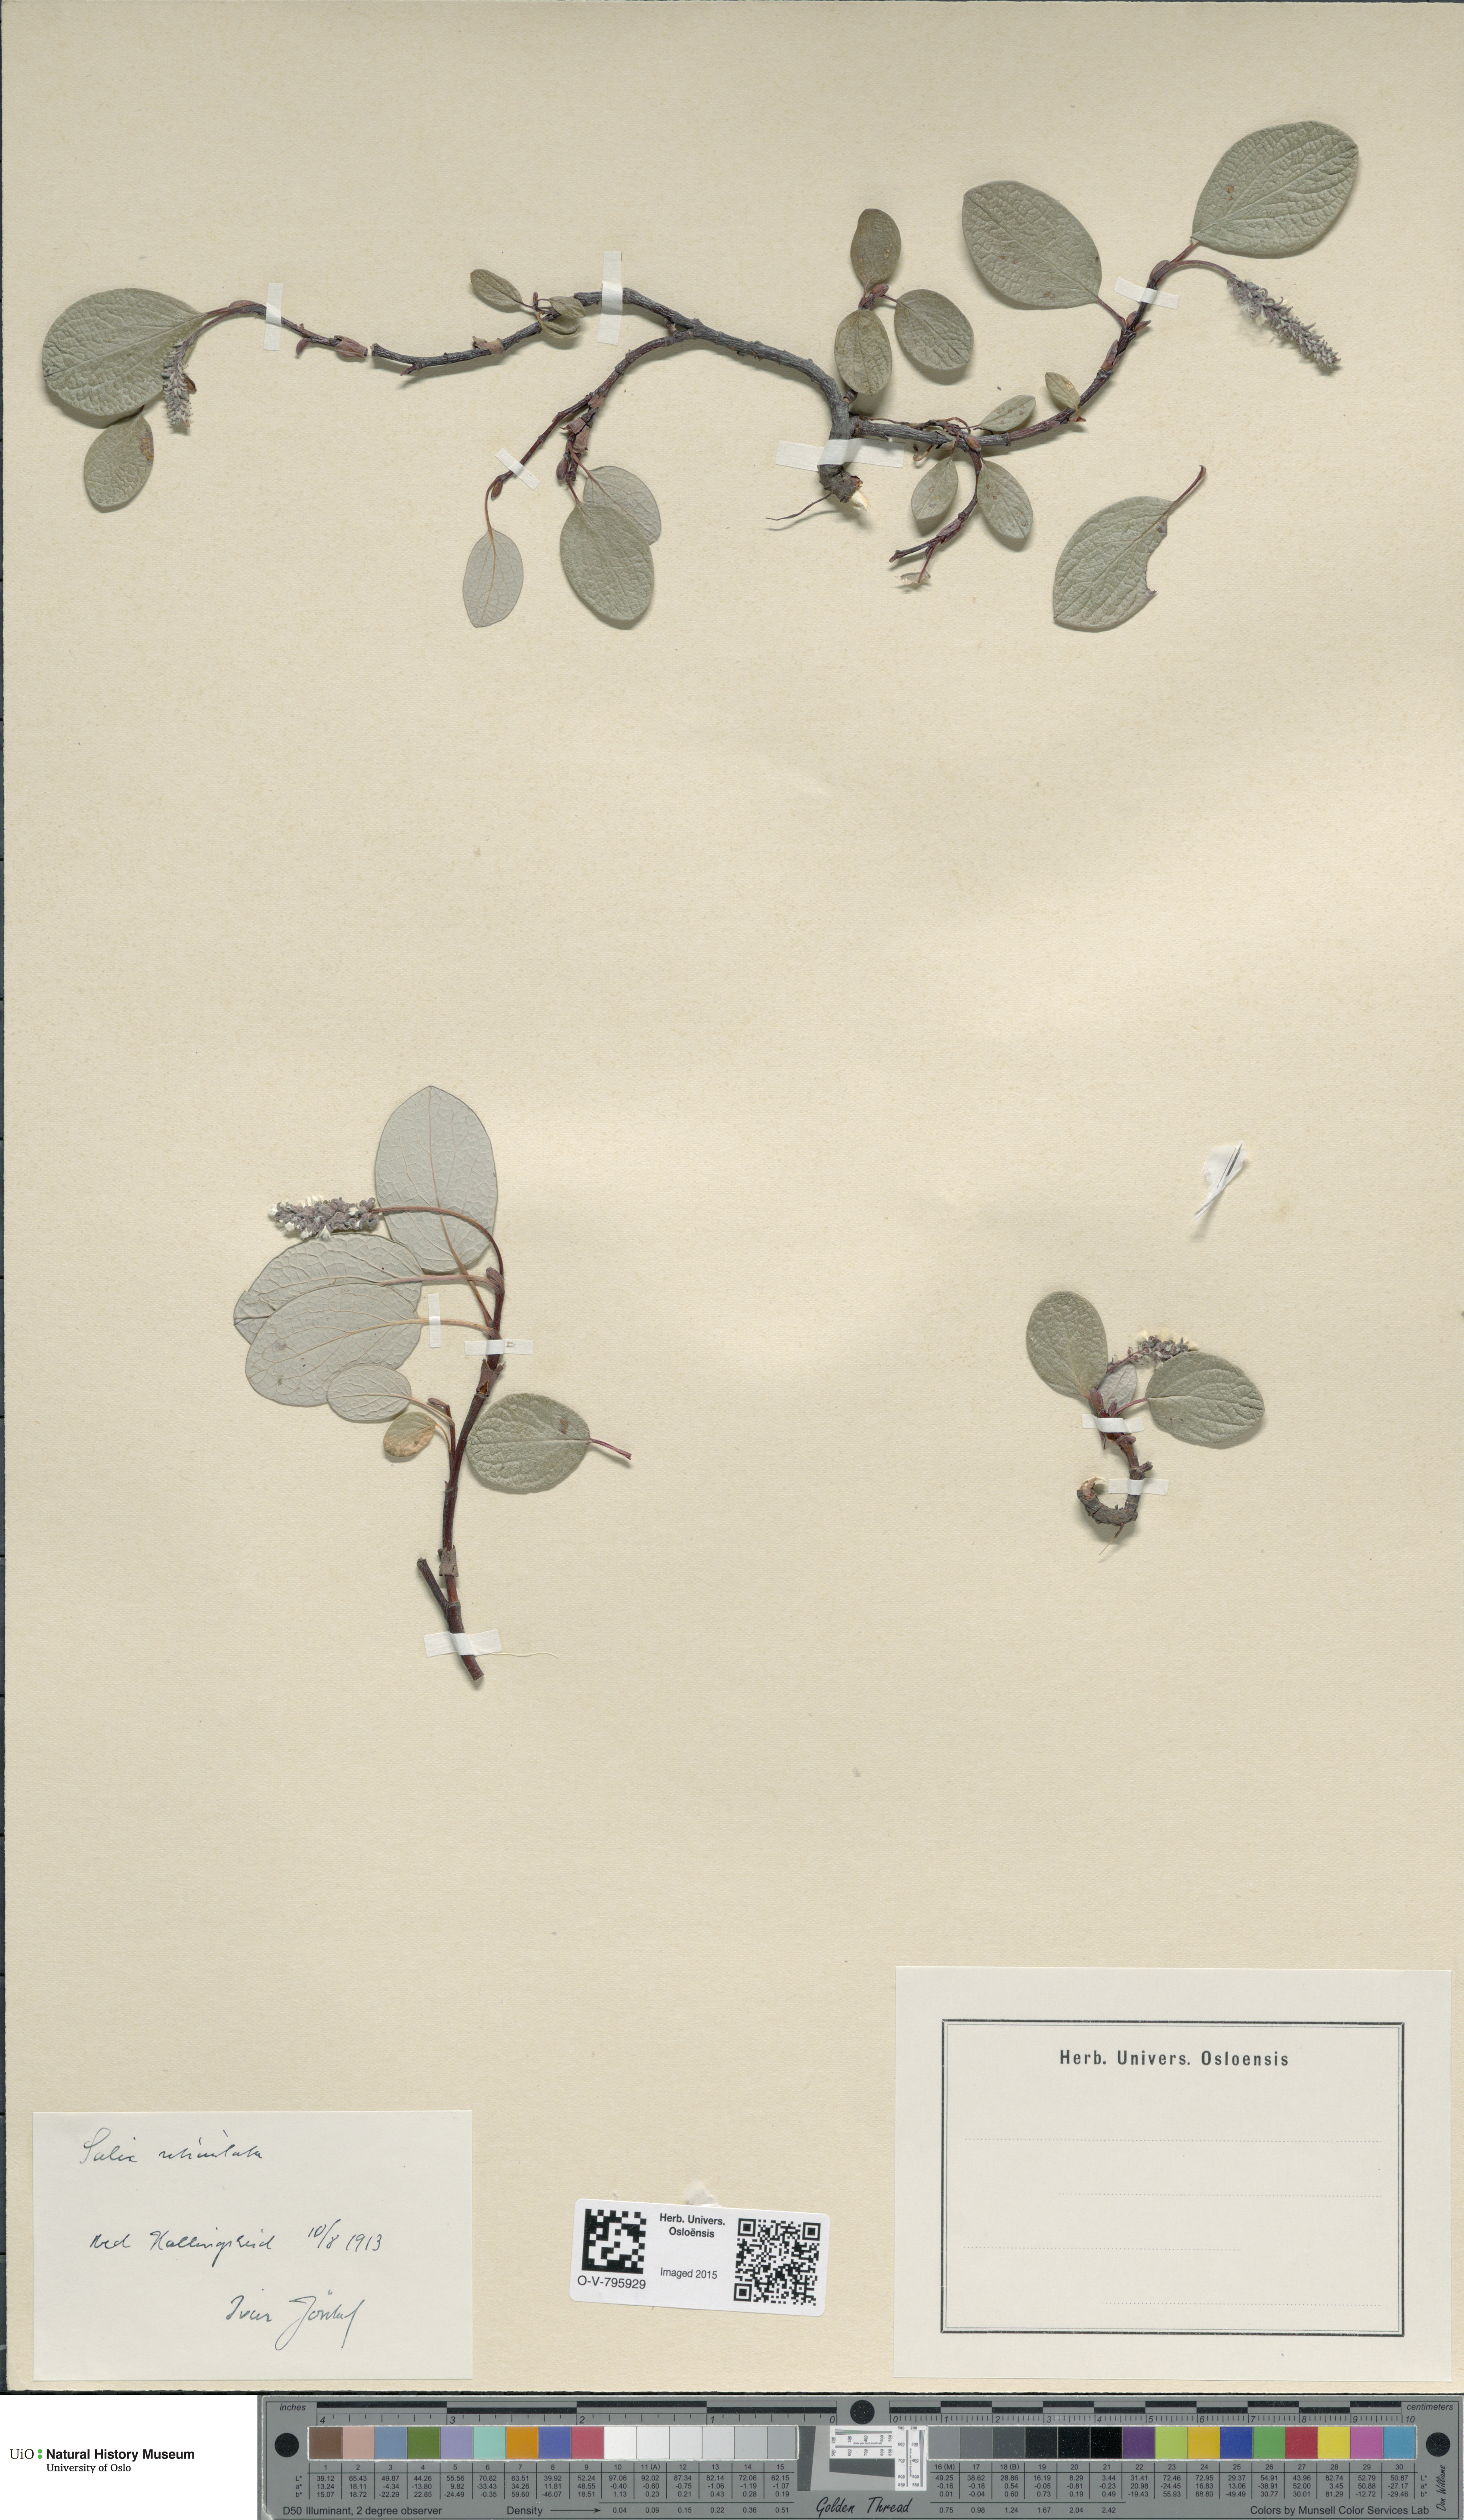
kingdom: Plantae
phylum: Tracheophyta
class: Magnoliopsida
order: Malpighiales
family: Salicaceae
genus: Salix
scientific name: Salix reticulata
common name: Net-leaved willow
